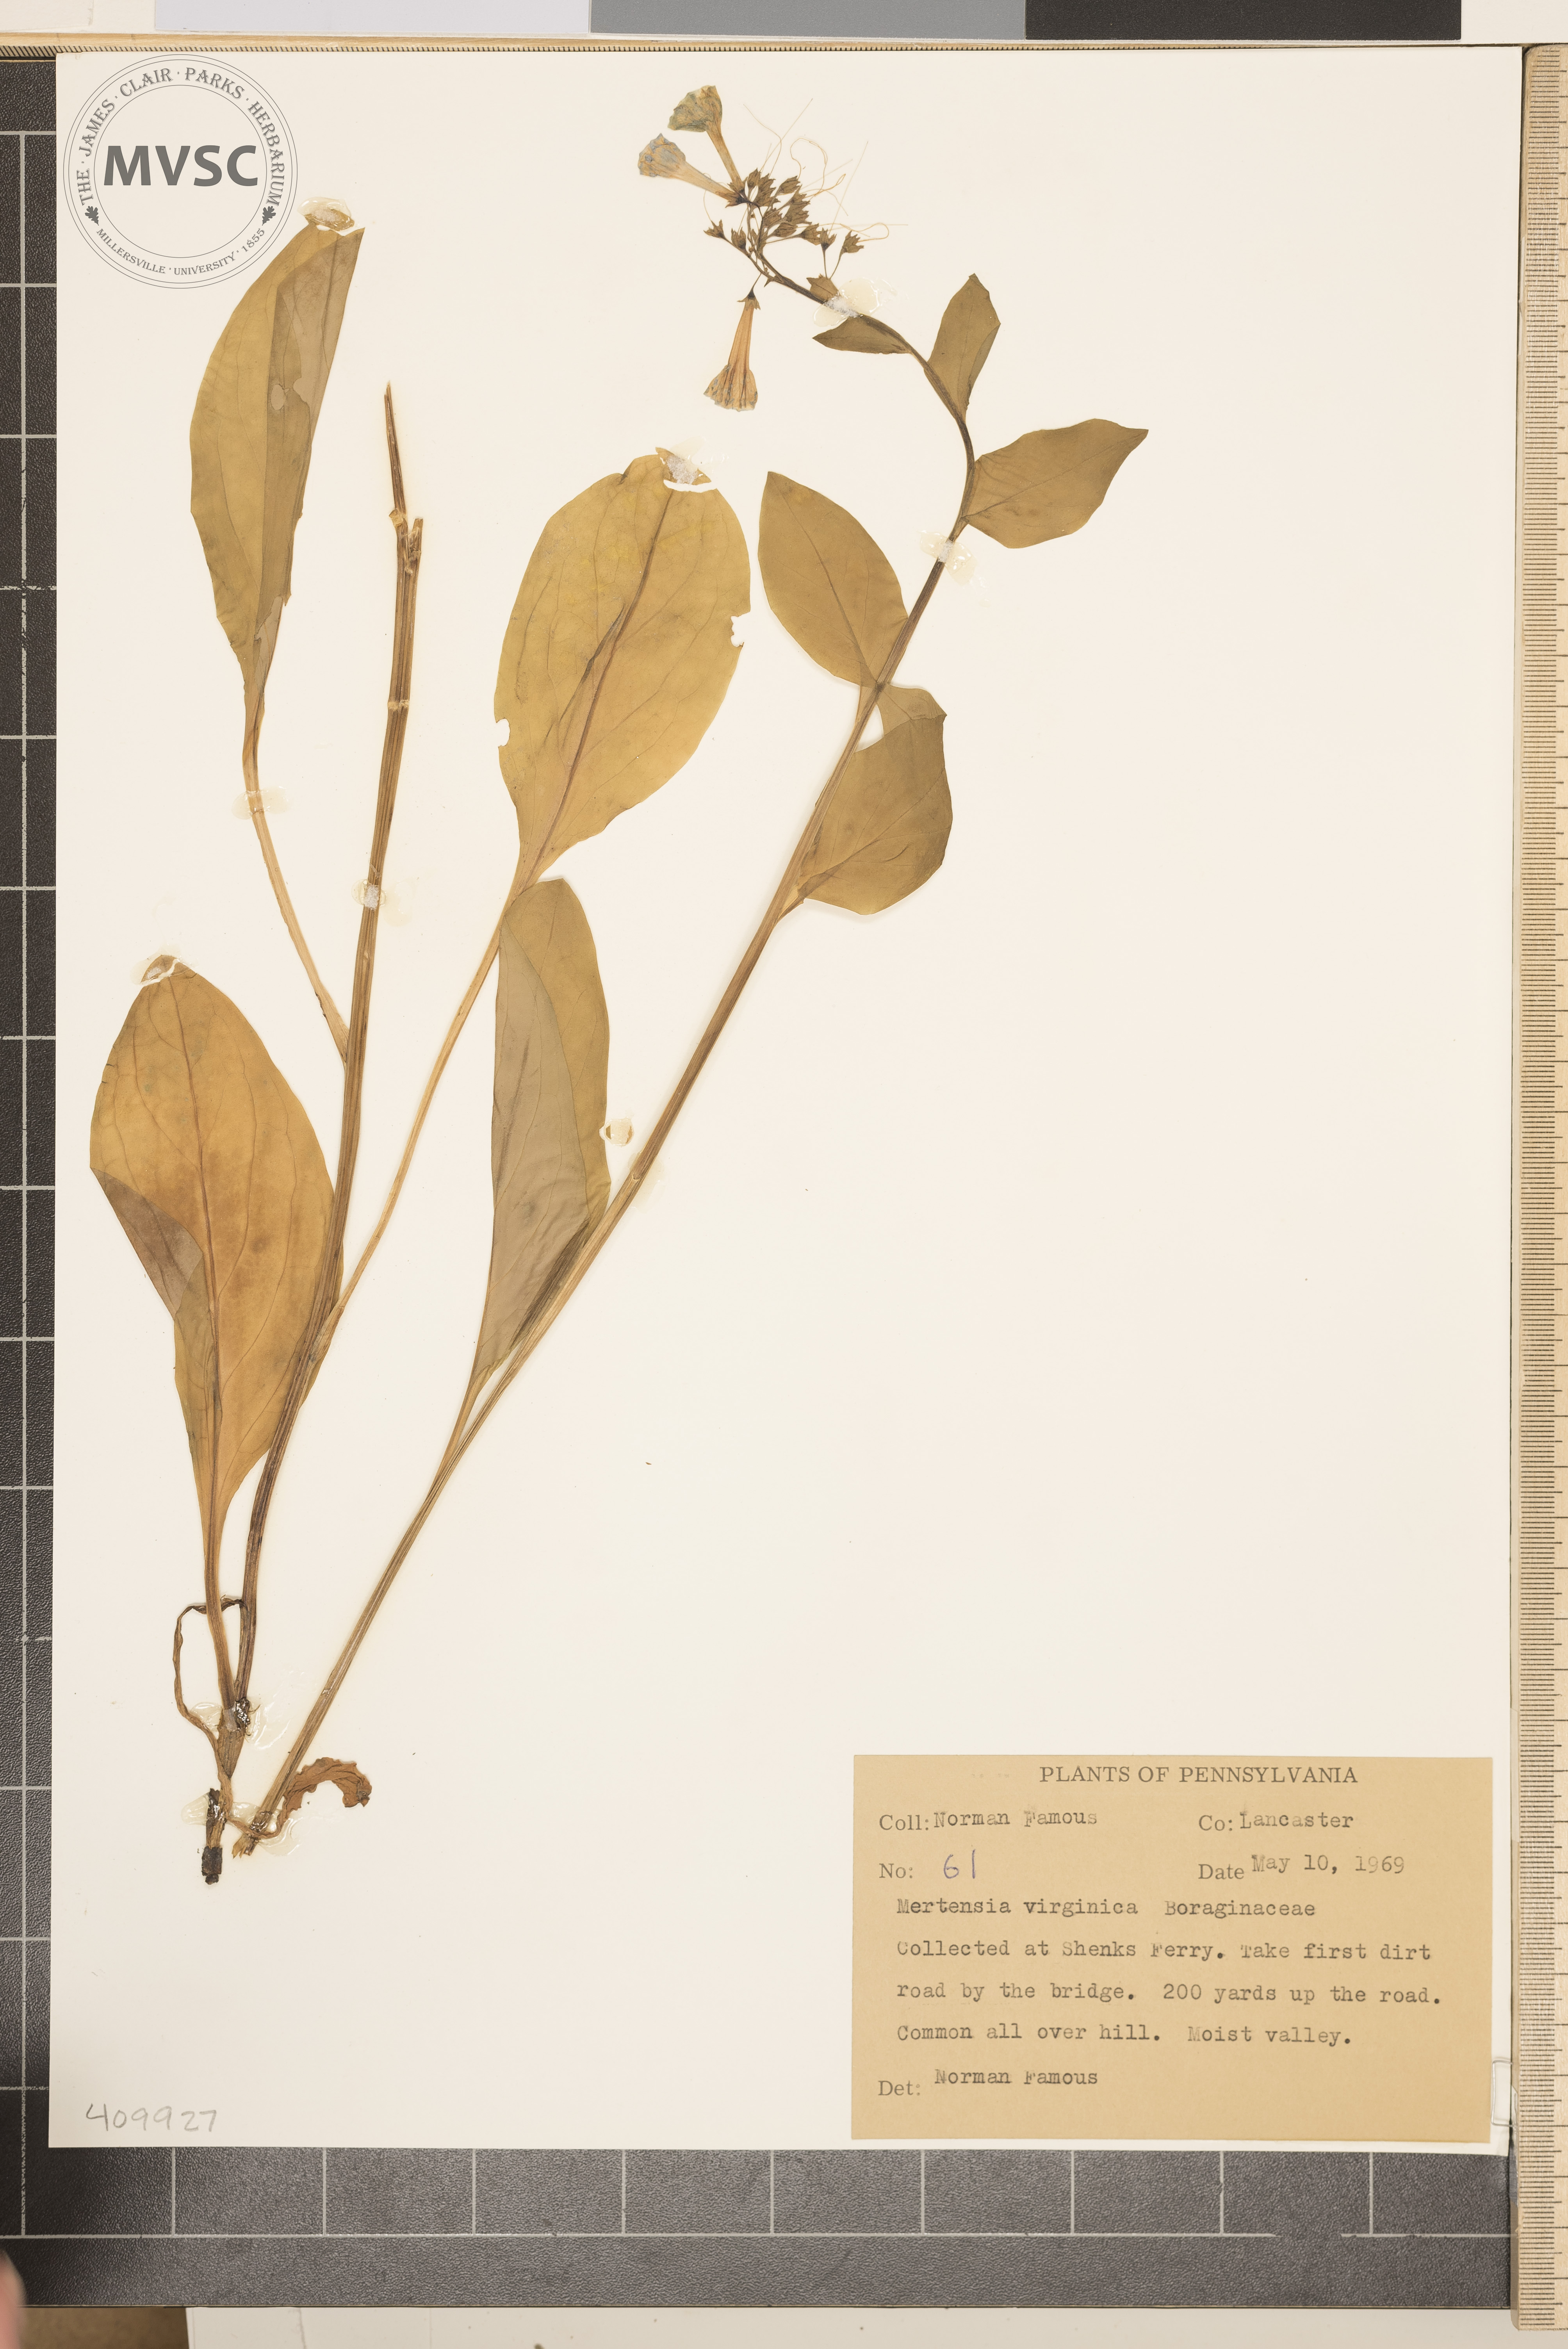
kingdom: Plantae
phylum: Tracheophyta
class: Magnoliopsida
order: Boraginales
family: Boraginaceae
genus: Mertensia
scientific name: Mertensia virginica
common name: Virginia bluebells
